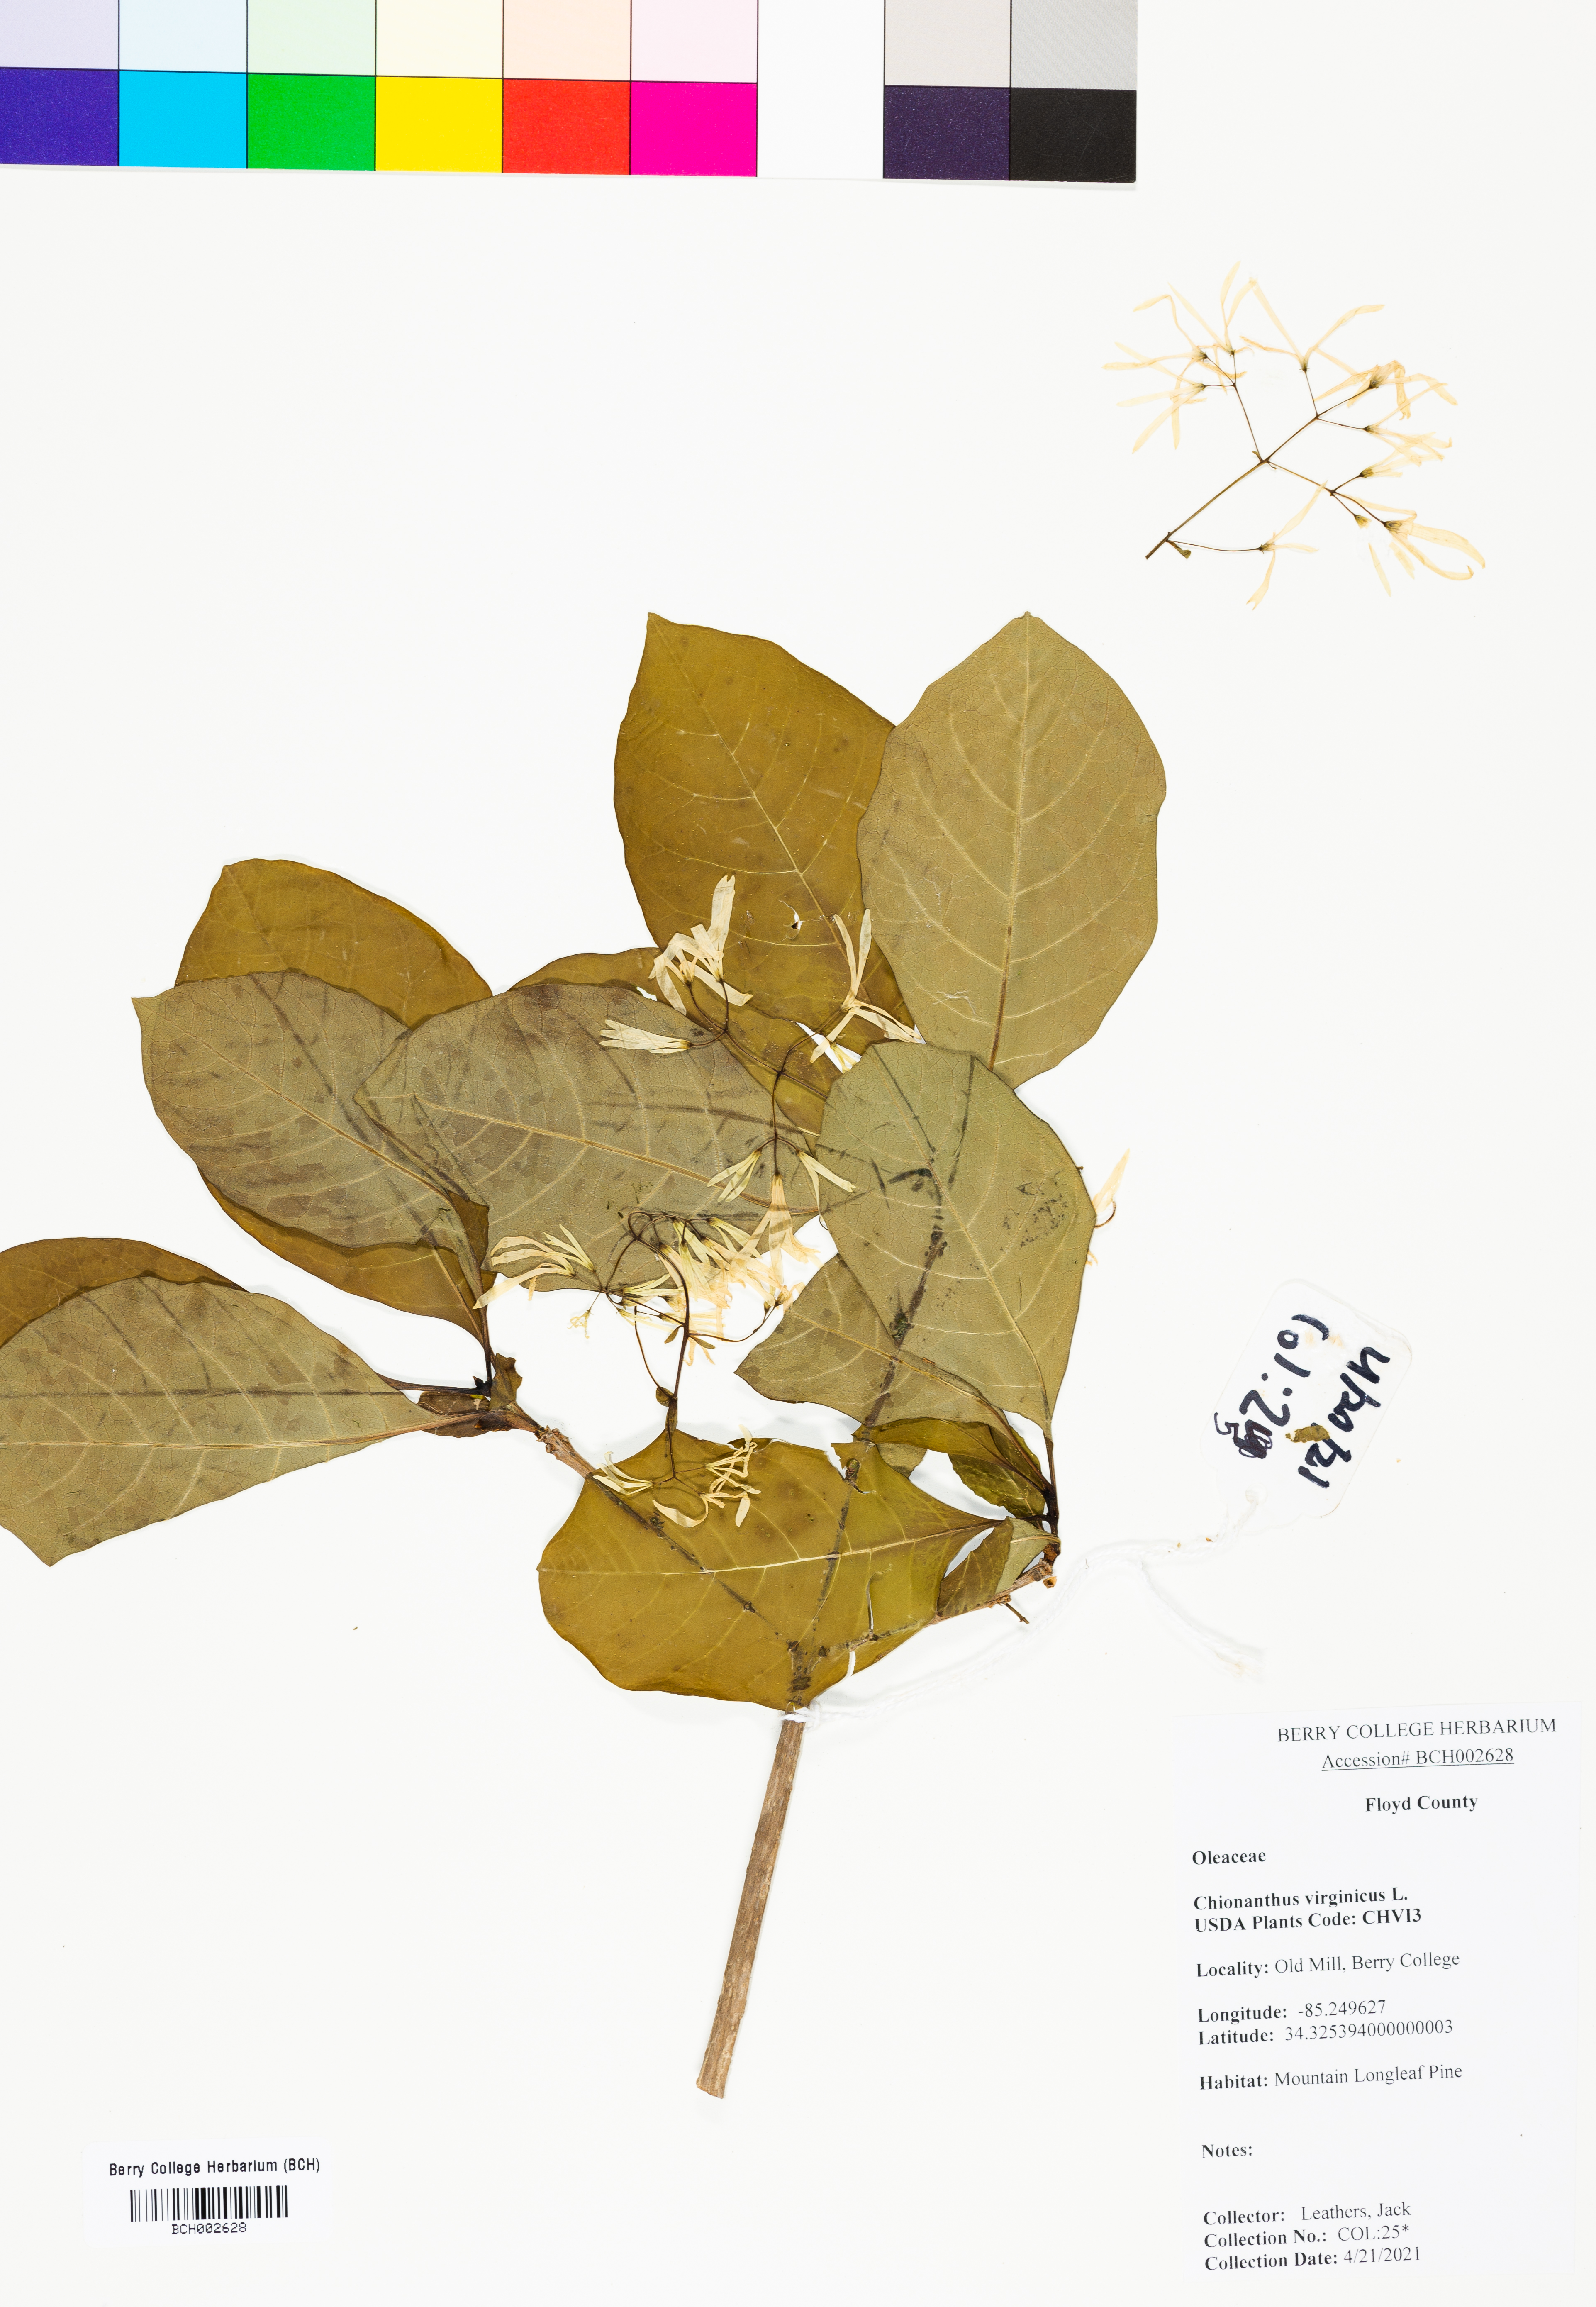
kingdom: Plantae
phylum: Tracheophyta
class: Magnoliopsida
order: Lamiales
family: Oleaceae
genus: Chionanthus
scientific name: Chionanthus virginicus
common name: American fringetree
